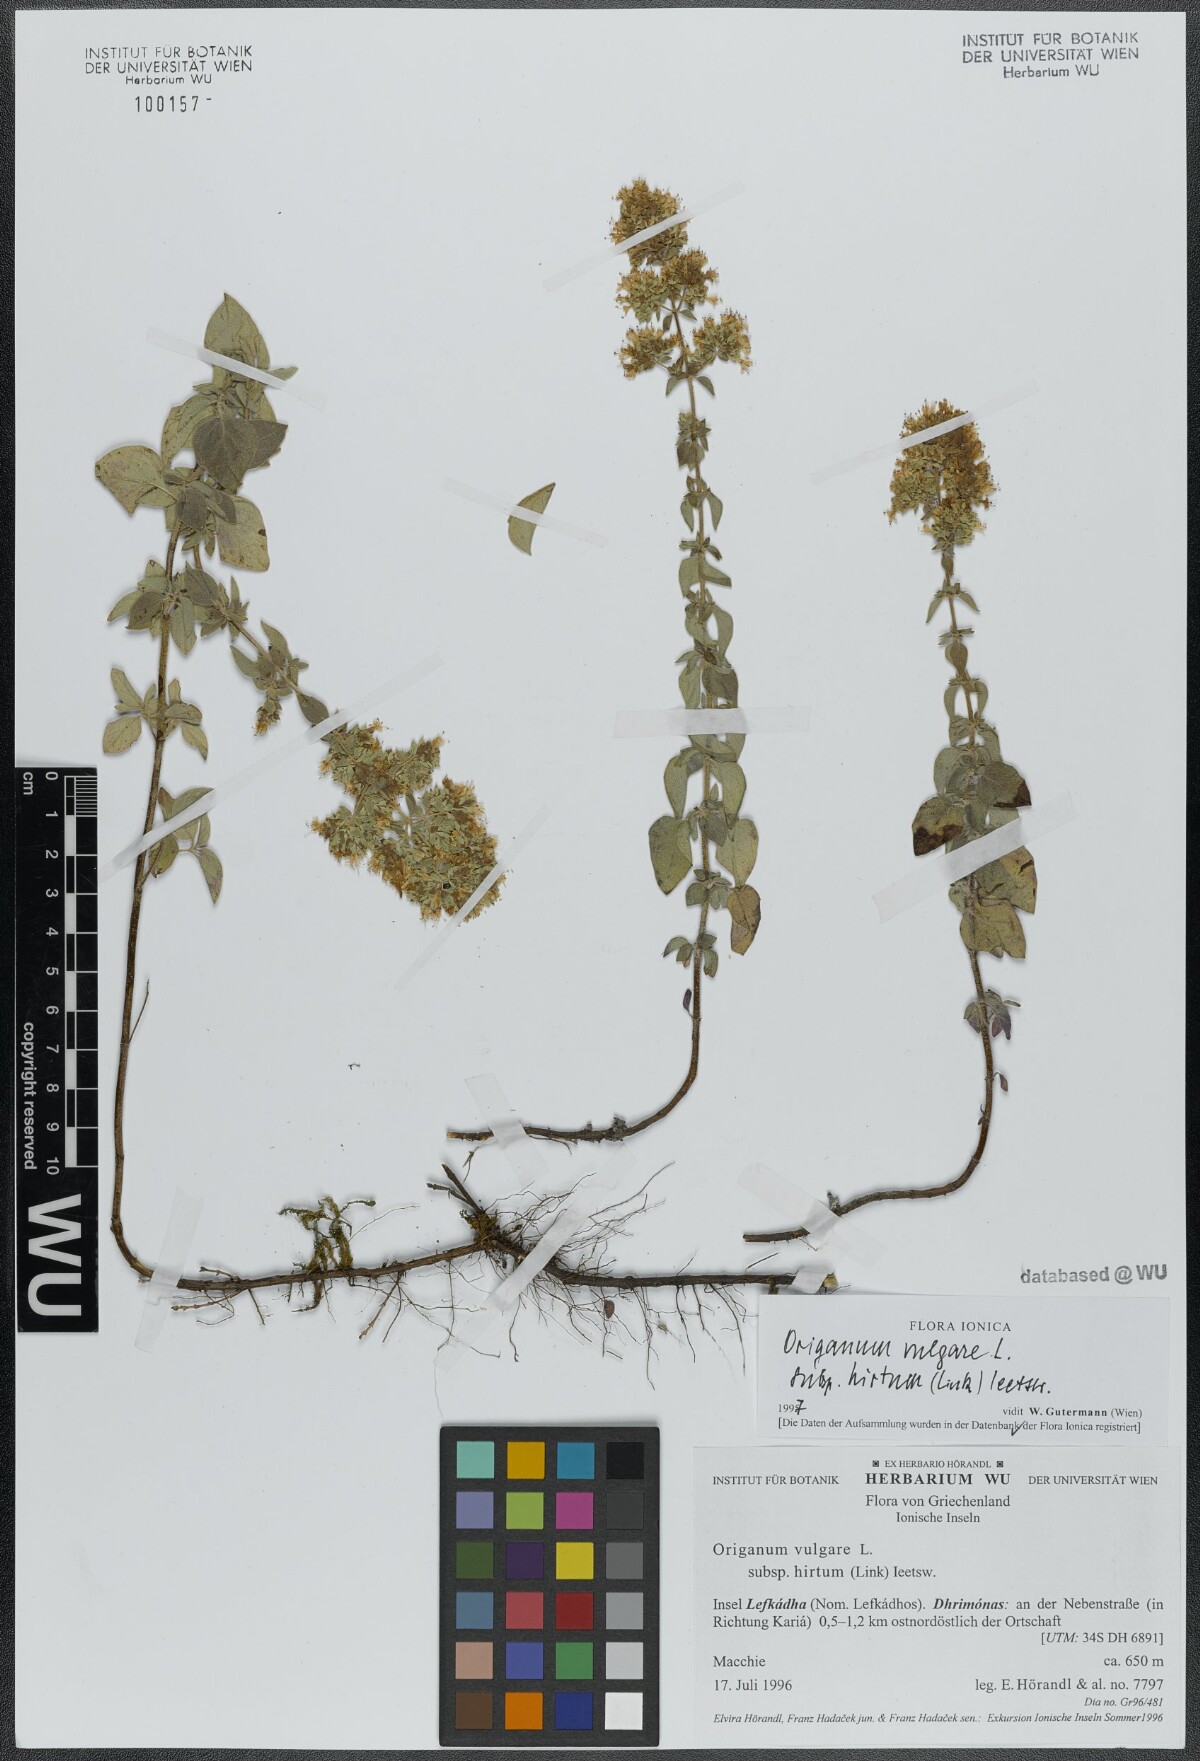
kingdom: Plantae
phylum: Tracheophyta
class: Magnoliopsida
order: Lamiales
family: Lamiaceae
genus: Origanum
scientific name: Origanum vulgare
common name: Wild marjoram
